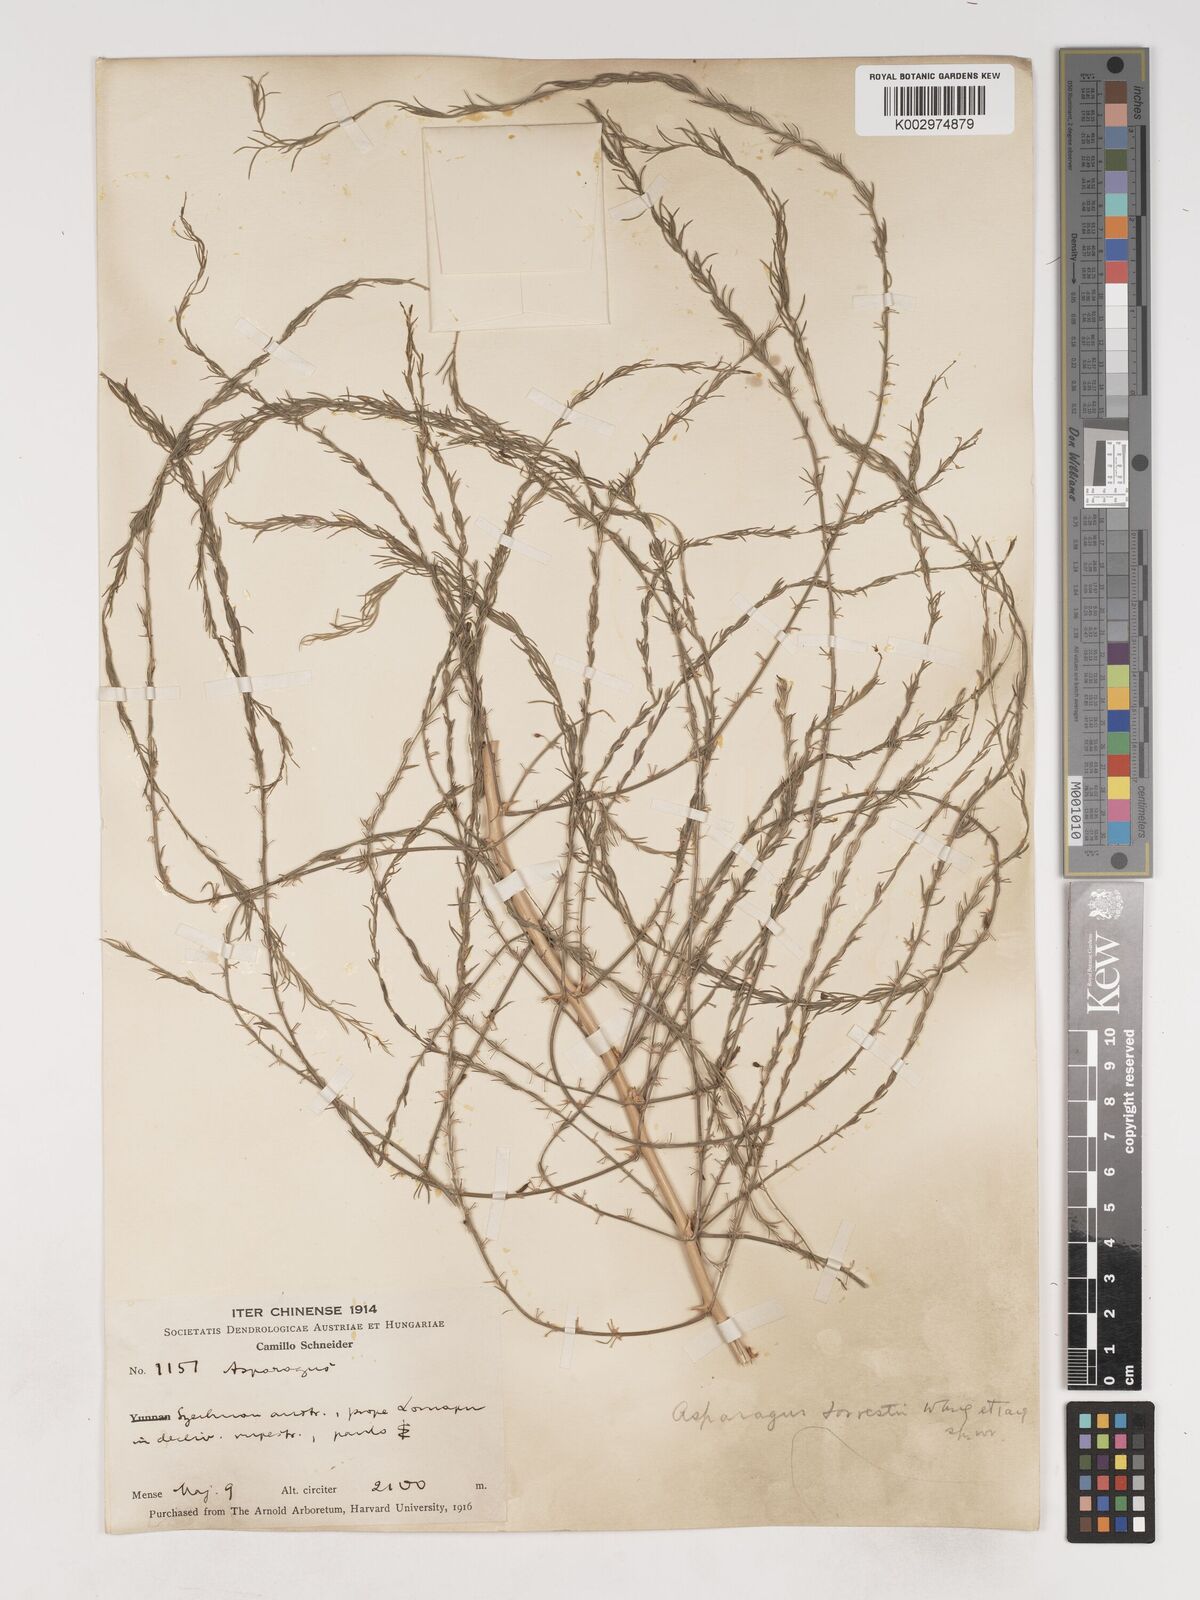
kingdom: Plantae
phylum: Tracheophyta
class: Liliopsida
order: Asparagales
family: Asparagaceae
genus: Asparagus
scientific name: Asparagus
